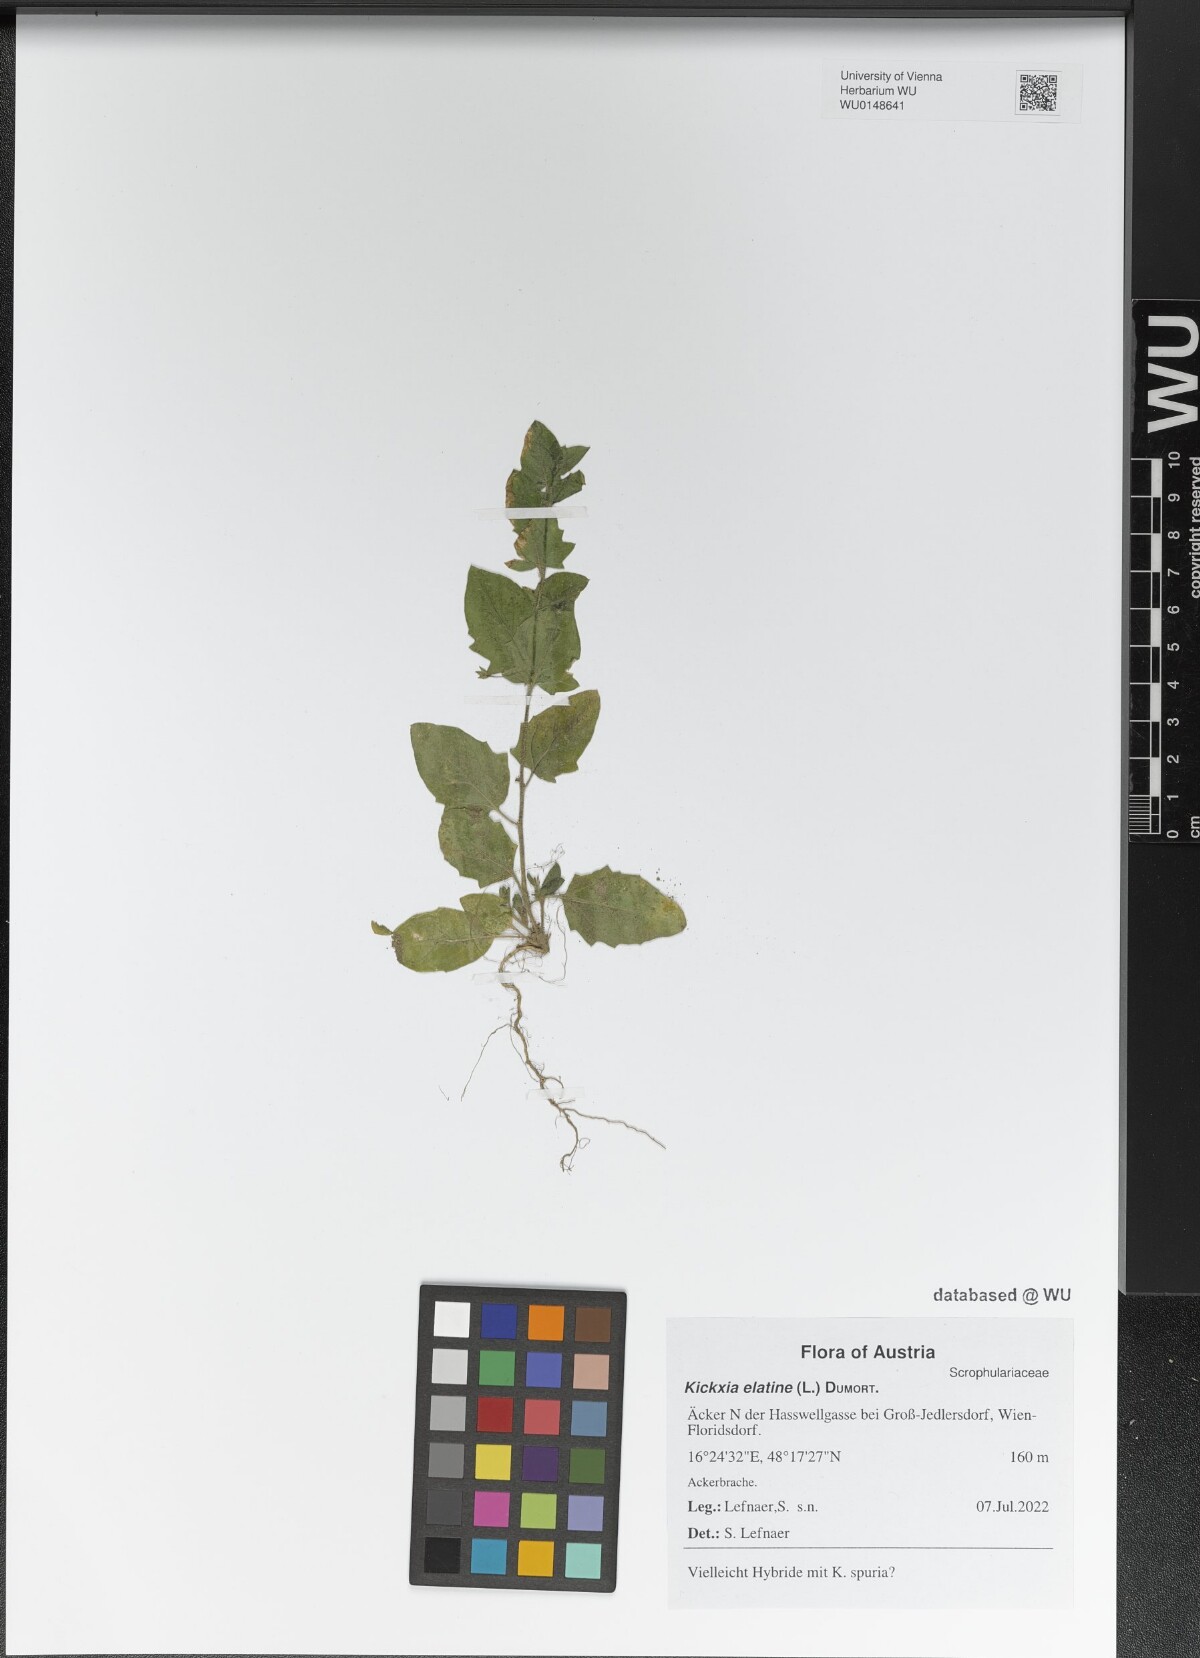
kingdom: Plantae
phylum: Tracheophyta
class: Magnoliopsida
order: Lamiales
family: Plantaginaceae
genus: Kickxia
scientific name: Kickxia elatine
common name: Sharp-leaved fluellen
